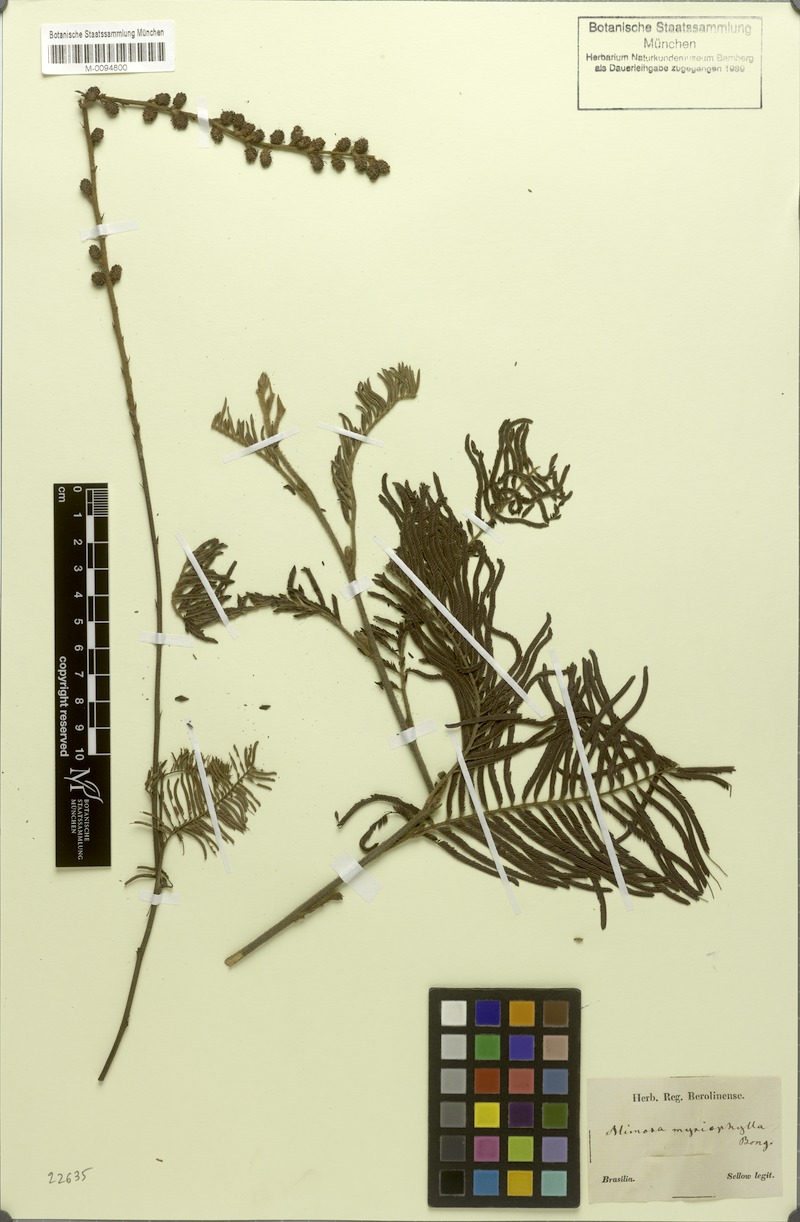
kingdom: Plantae
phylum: Tracheophyta
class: Magnoliopsida
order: Fabales
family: Fabaceae
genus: Mimosa
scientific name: Mimosa myriophylla
